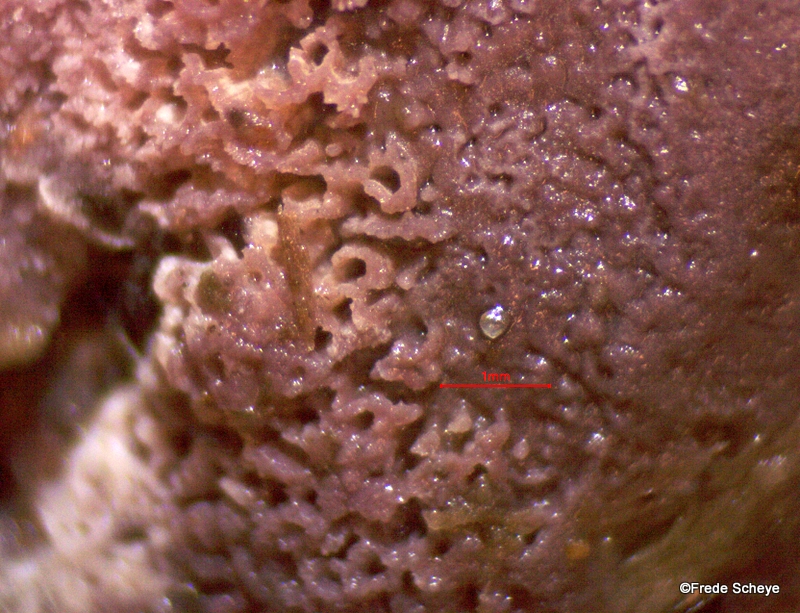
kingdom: Fungi
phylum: Basidiomycota
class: Agaricomycetes
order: Polyporales
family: Irpicaceae
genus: Ceriporia
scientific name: Ceriporia excelsa
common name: lilla voksporesvamp
